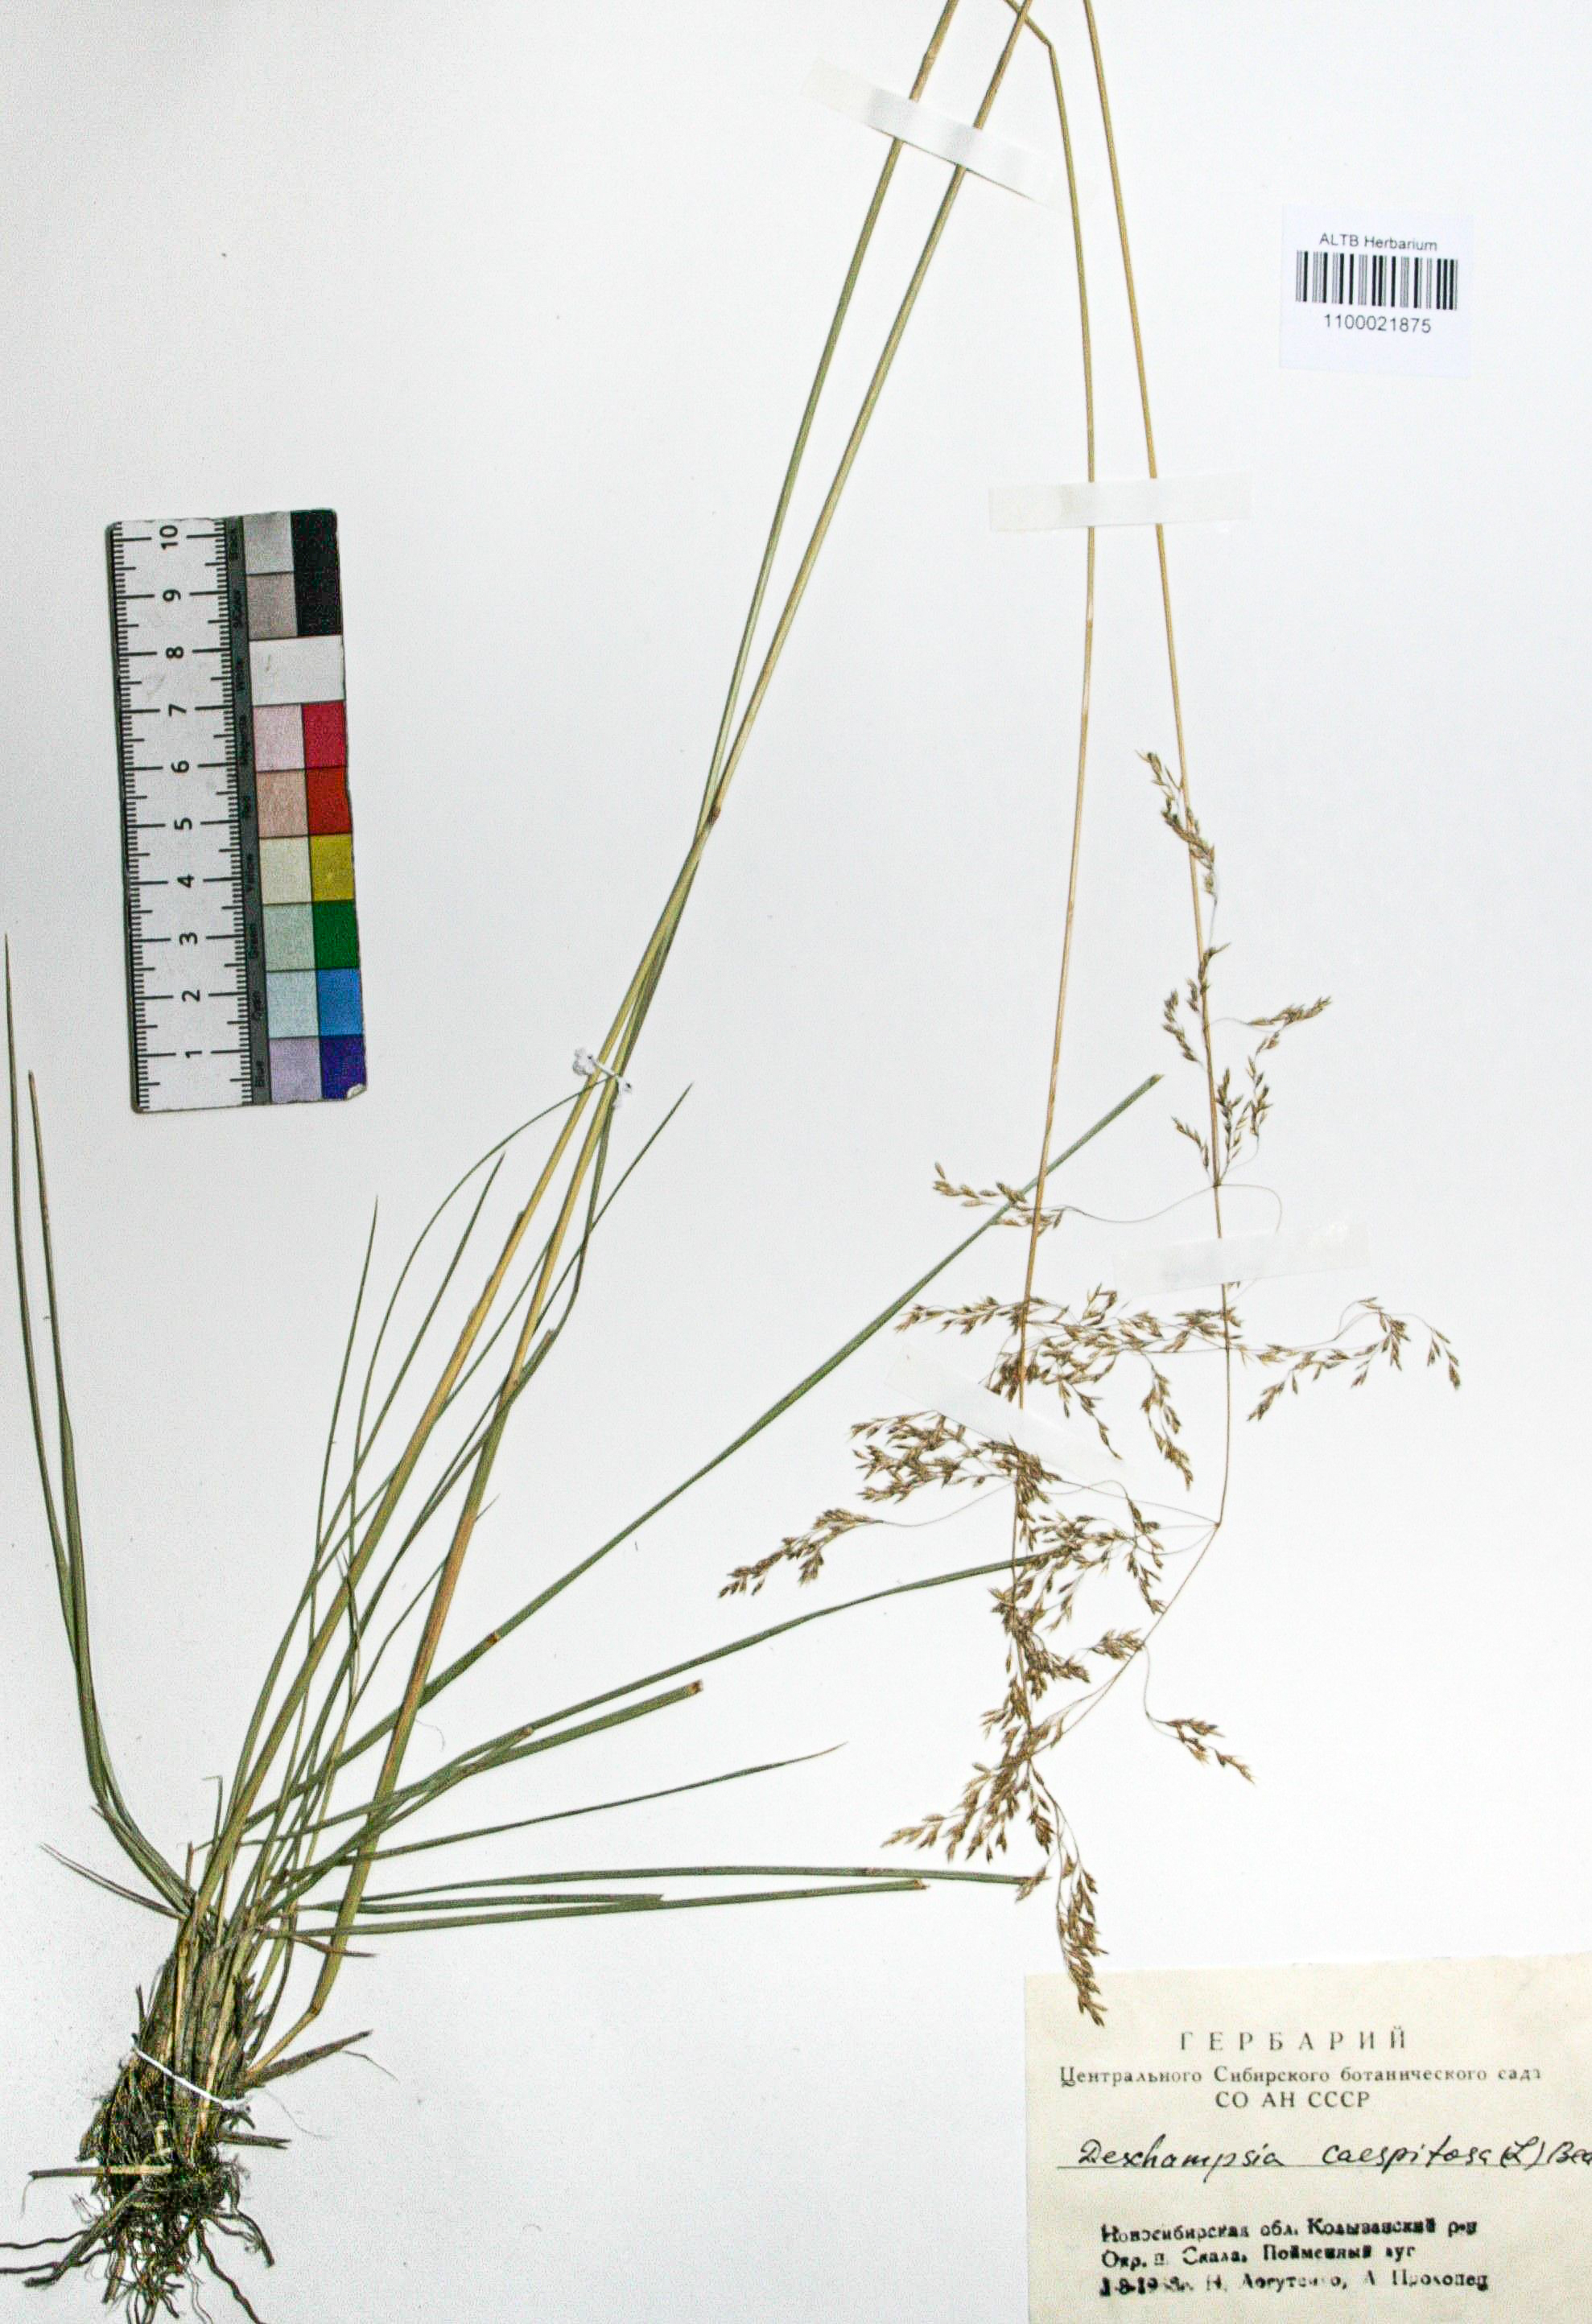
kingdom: Plantae
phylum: Tracheophyta
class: Liliopsida
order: Poales
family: Poaceae
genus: Deschampsia
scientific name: Deschampsia cespitosa
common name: Tufted hair-grass
